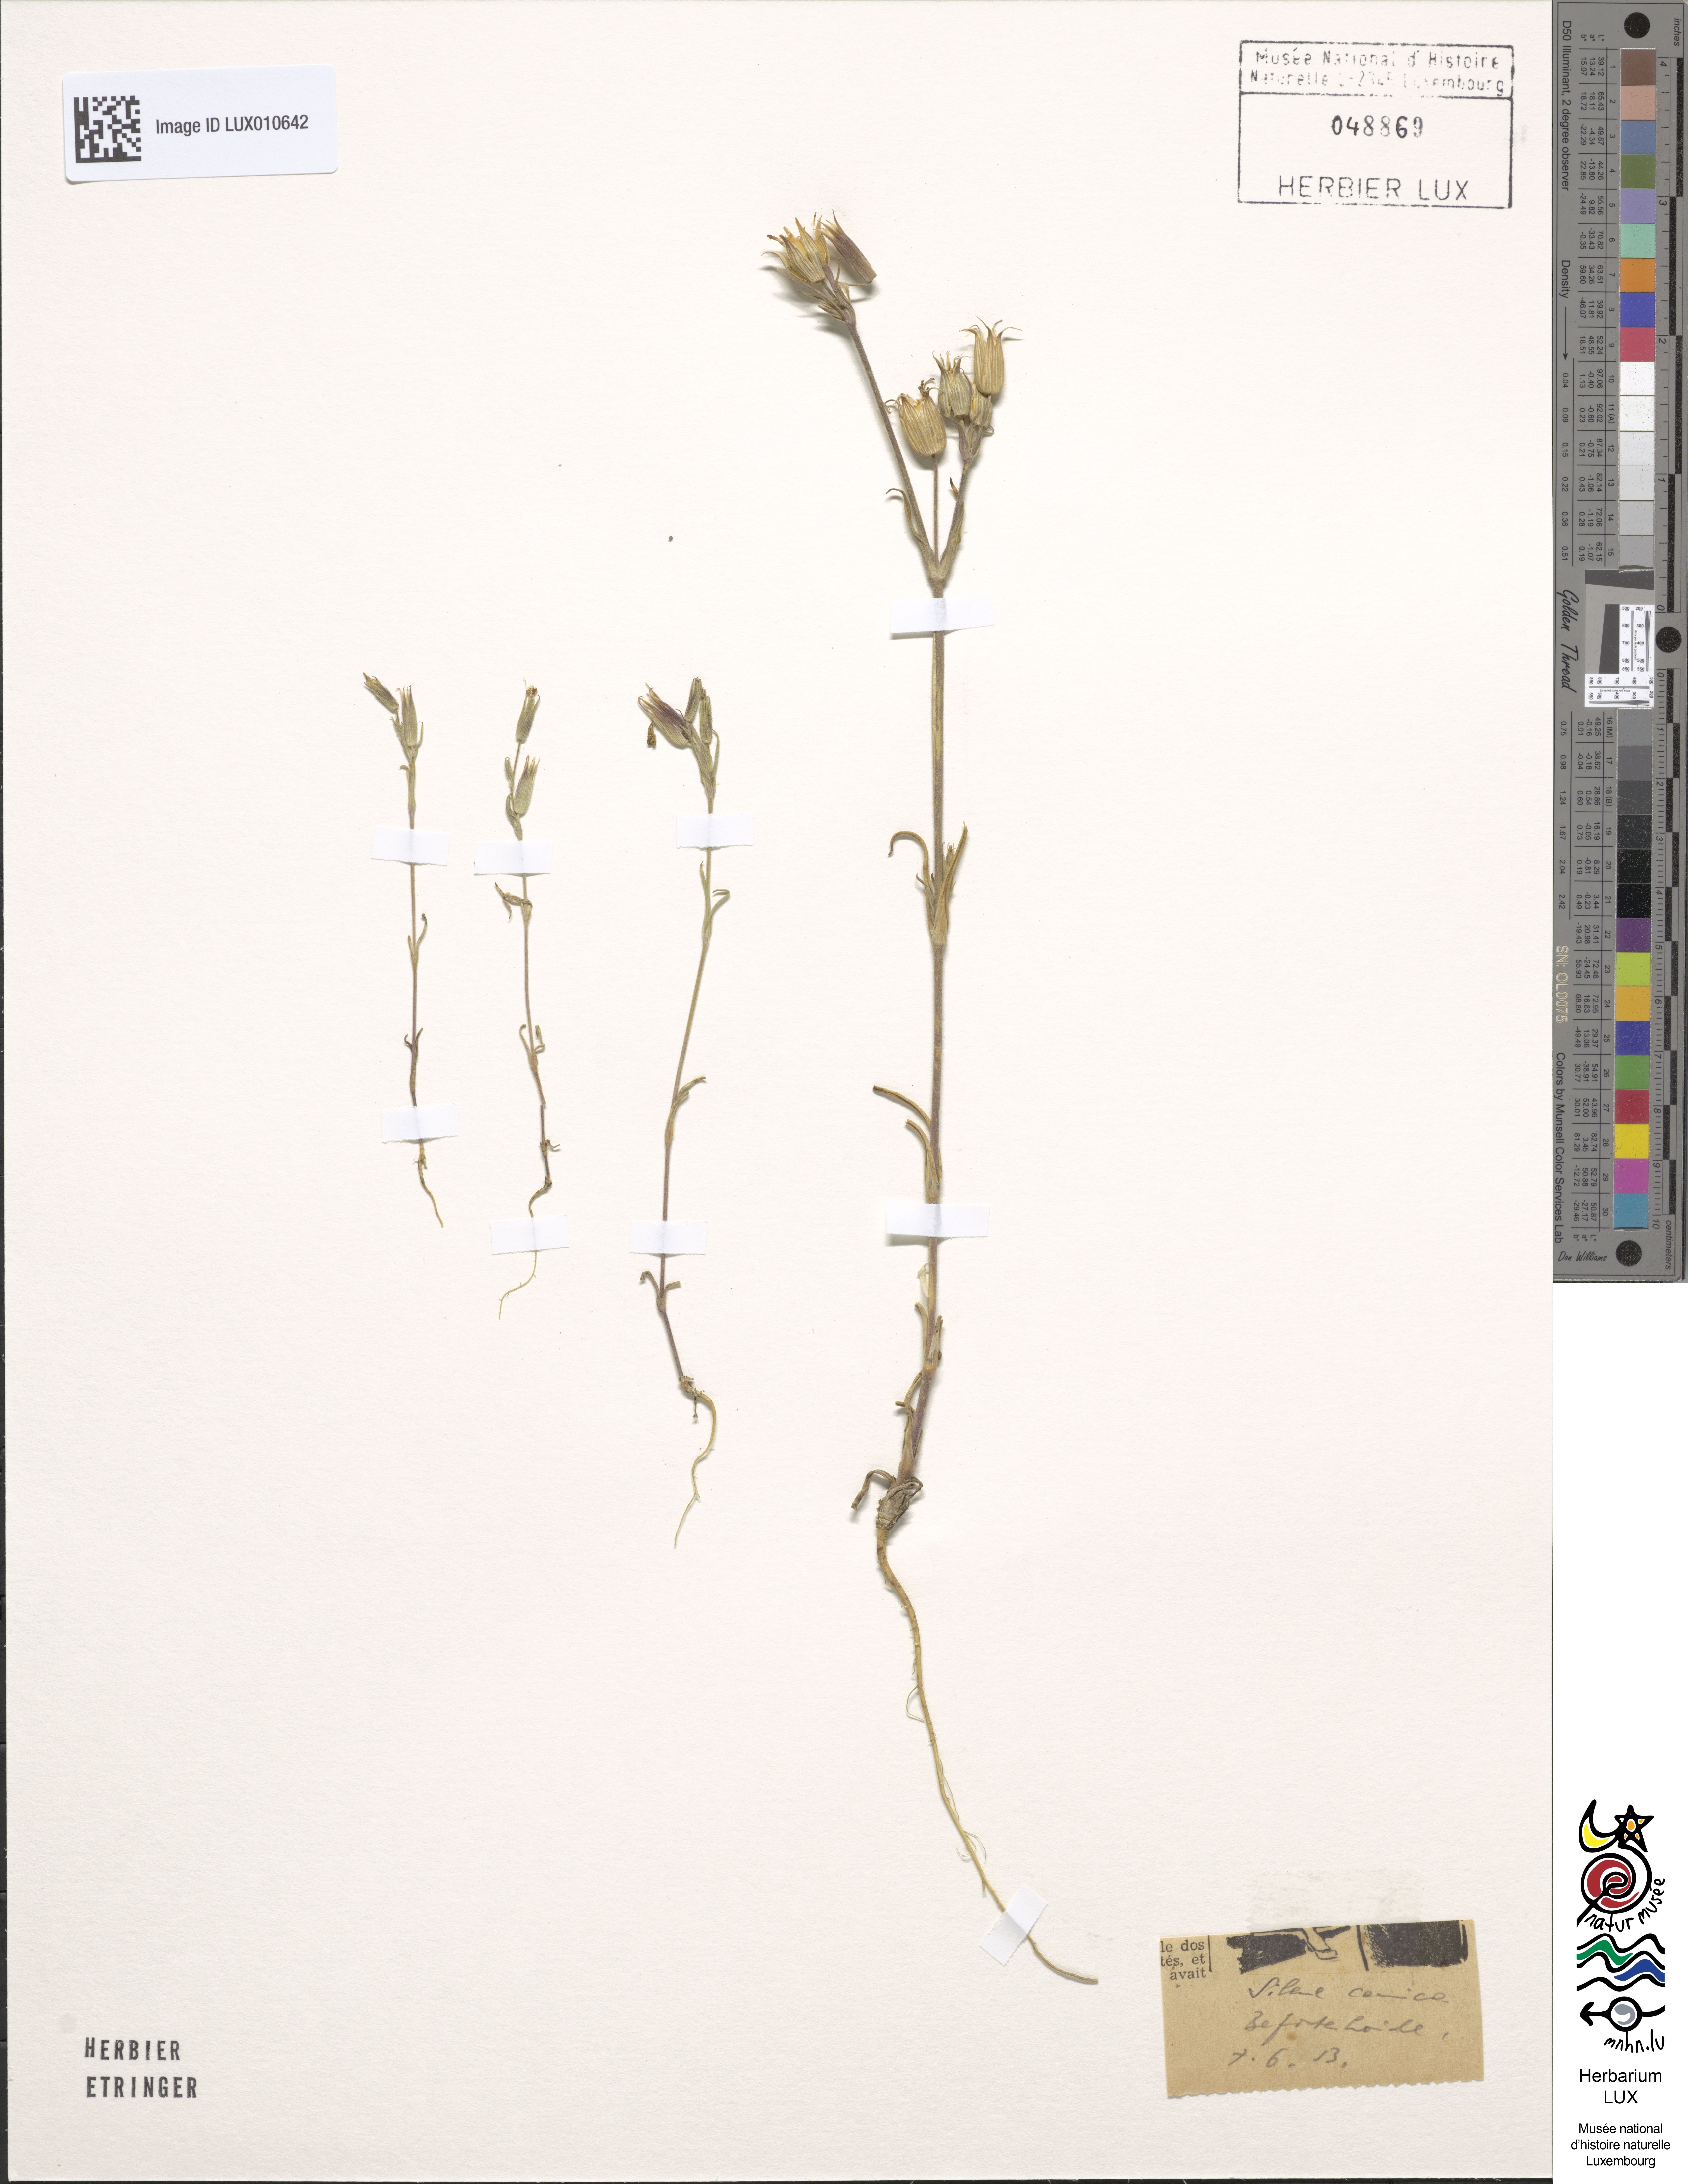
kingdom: Plantae
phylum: Tracheophyta
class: Magnoliopsida
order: Caryophyllales
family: Caryophyllaceae
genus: Silene
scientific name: Silene conica
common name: Sand catchfly
